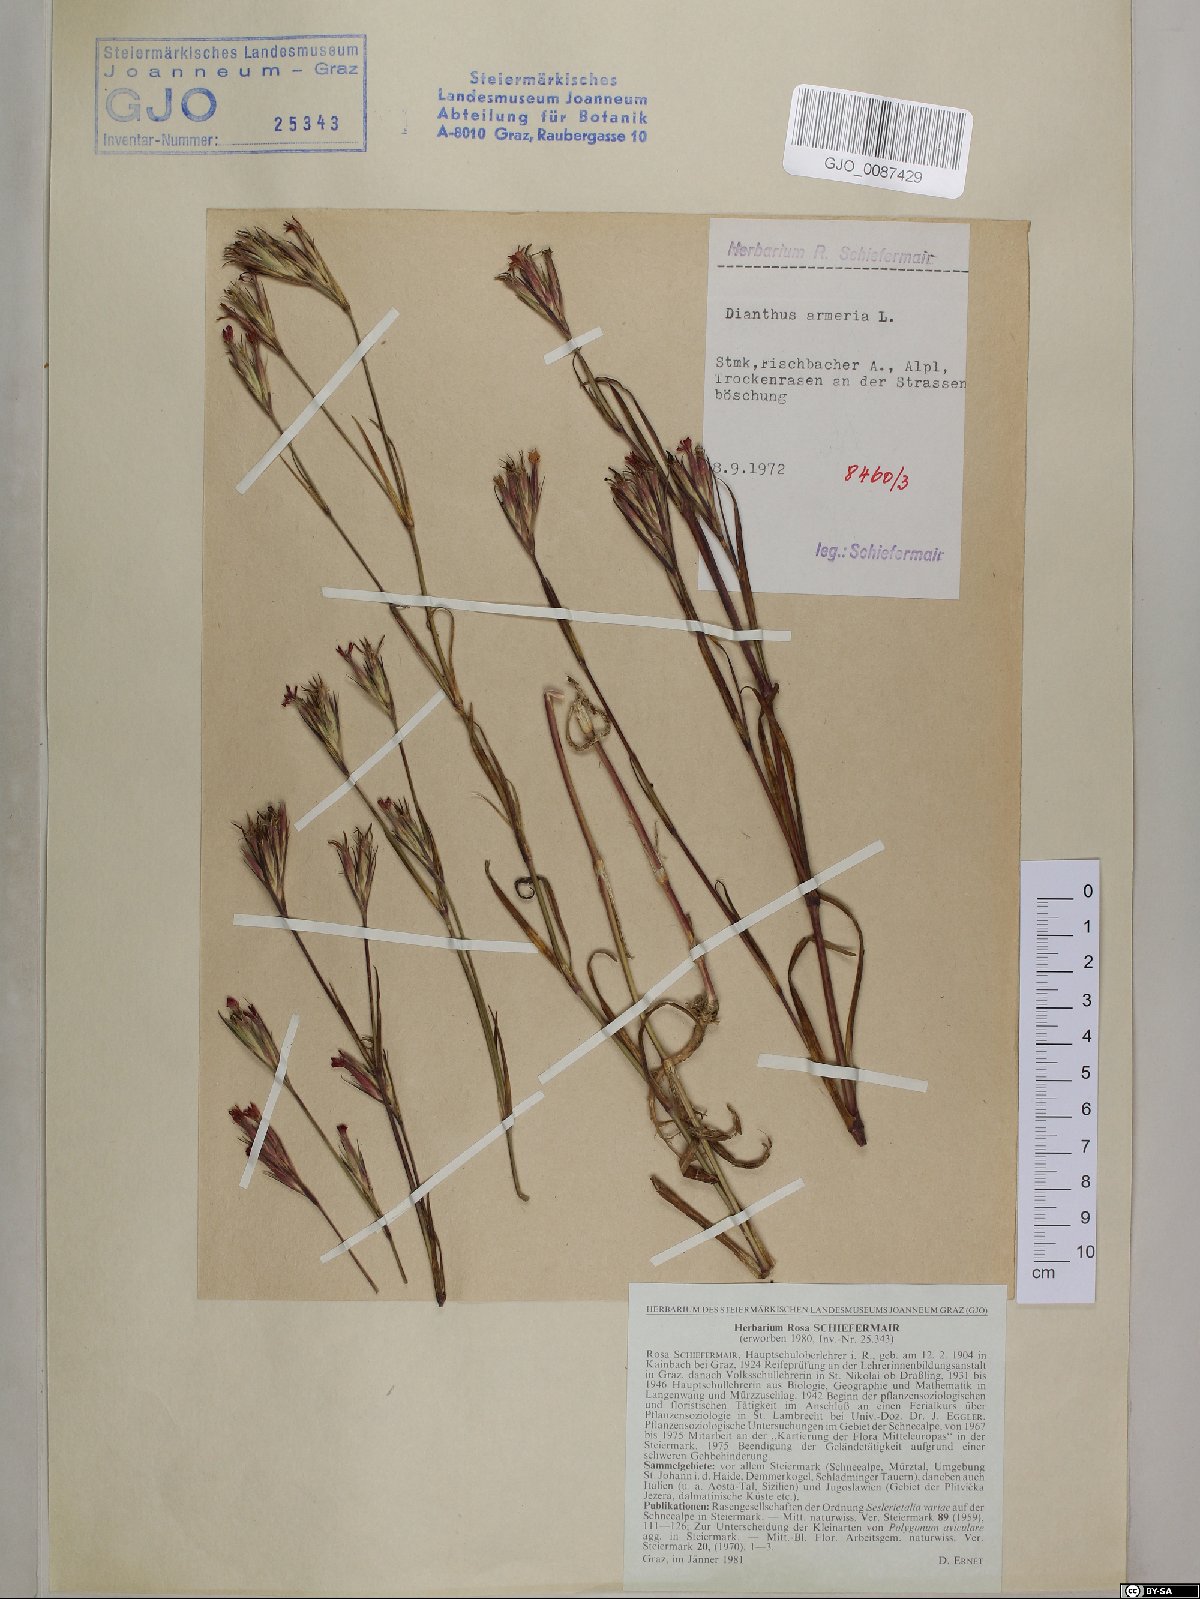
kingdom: Plantae
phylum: Tracheophyta
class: Magnoliopsida
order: Caryophyllales
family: Caryophyllaceae
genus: Dianthus
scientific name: Dianthus armeria
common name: Deptford pink
